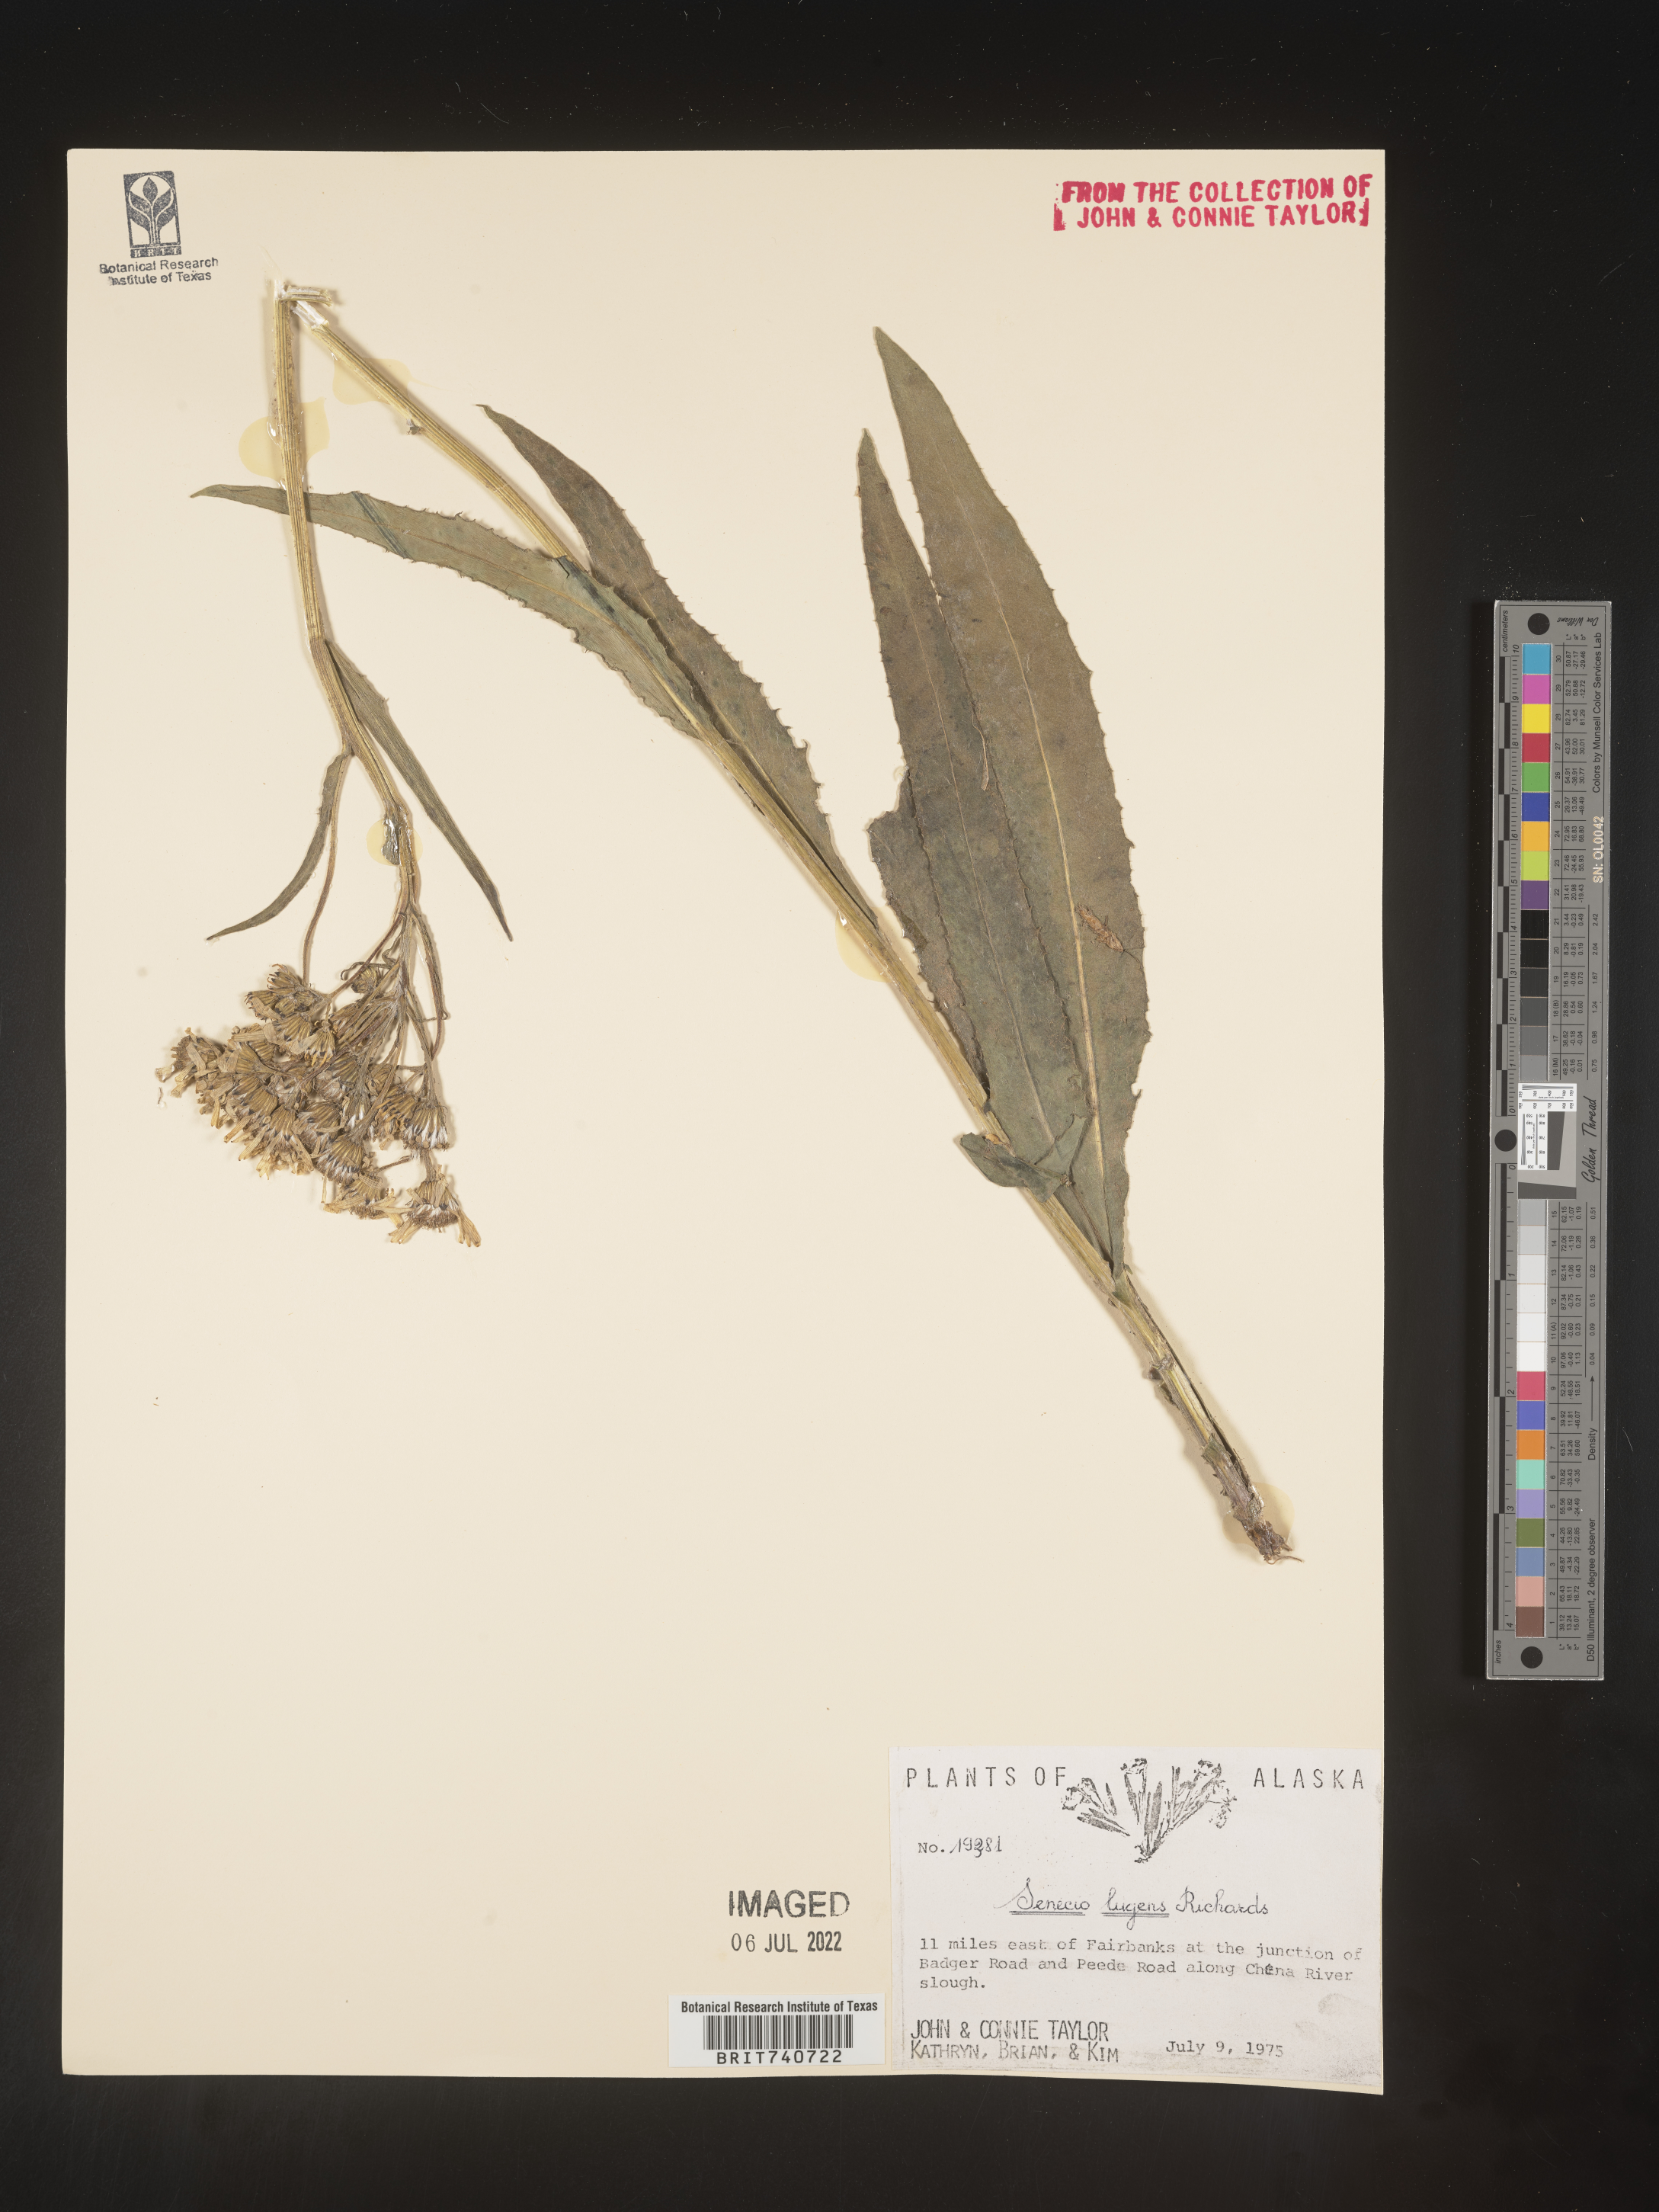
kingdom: Plantae
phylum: Tracheophyta
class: Magnoliopsida
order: Asterales
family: Asteraceae
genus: Senecio
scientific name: Senecio lugens
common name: Black-tip groundsel
